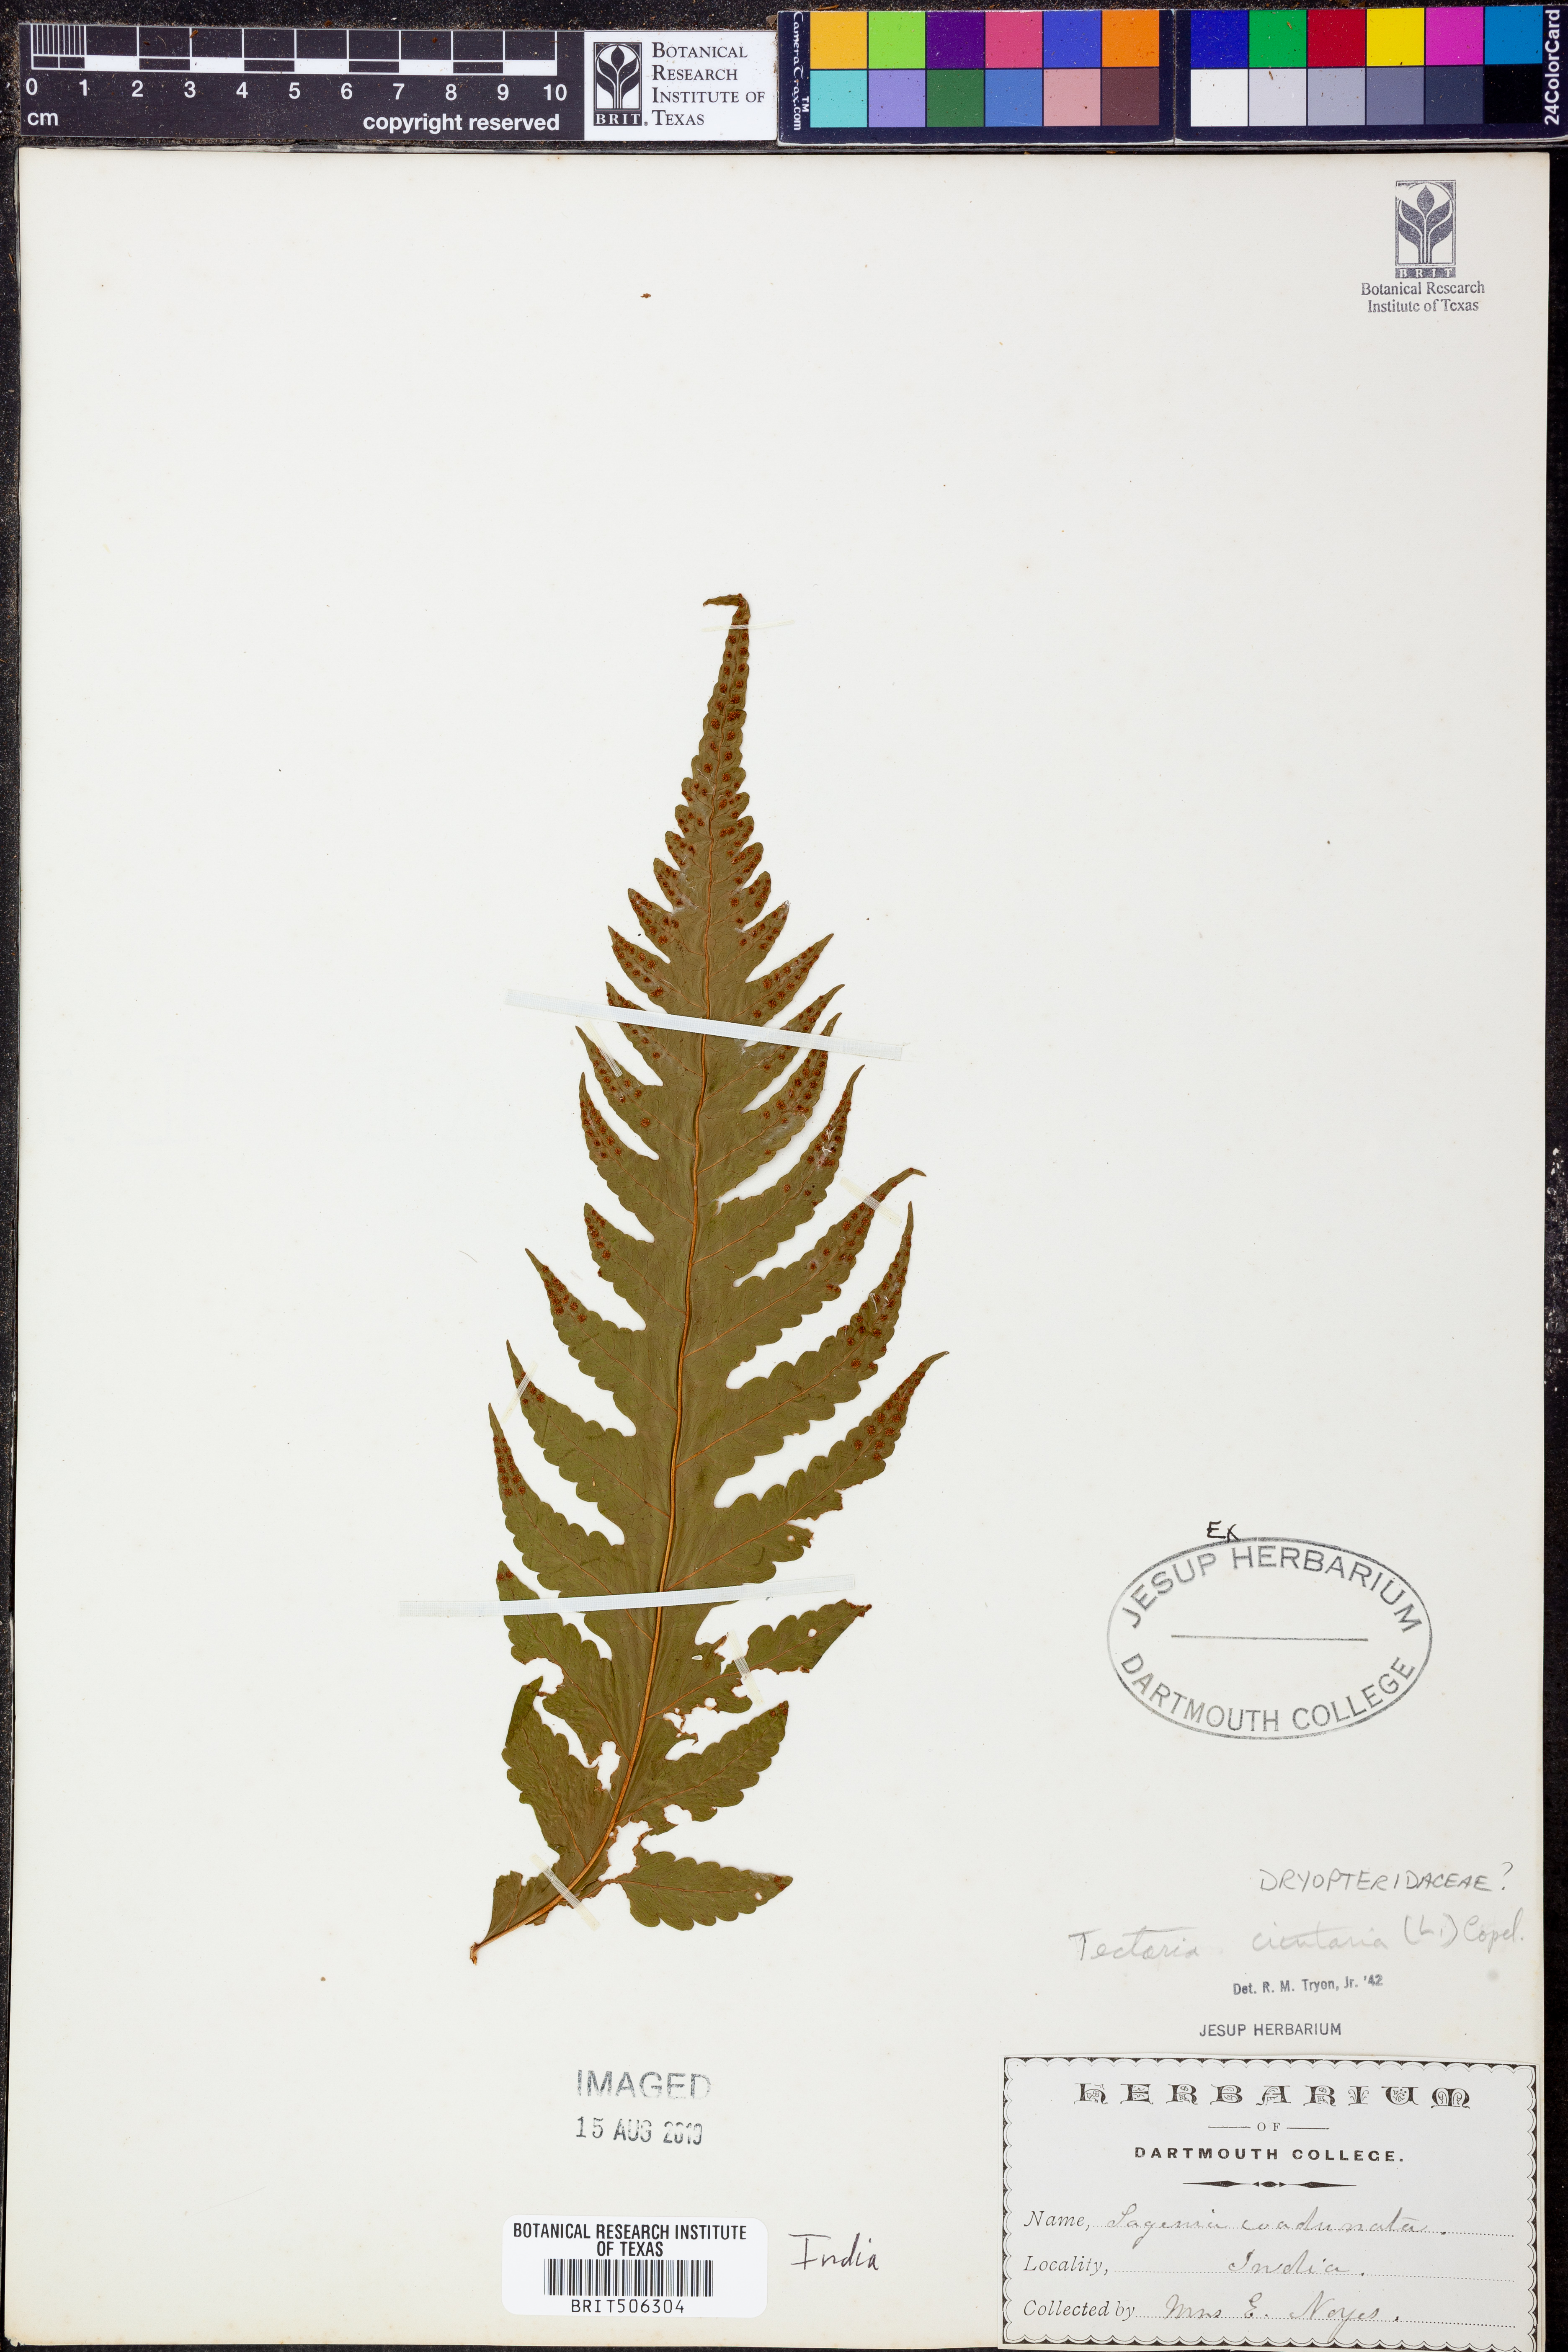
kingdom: Plantae
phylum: Tracheophyta
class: Polypodiopsida
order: Polypodiales
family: Tectariaceae
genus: Tectaria
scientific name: Tectaria cicutaria
